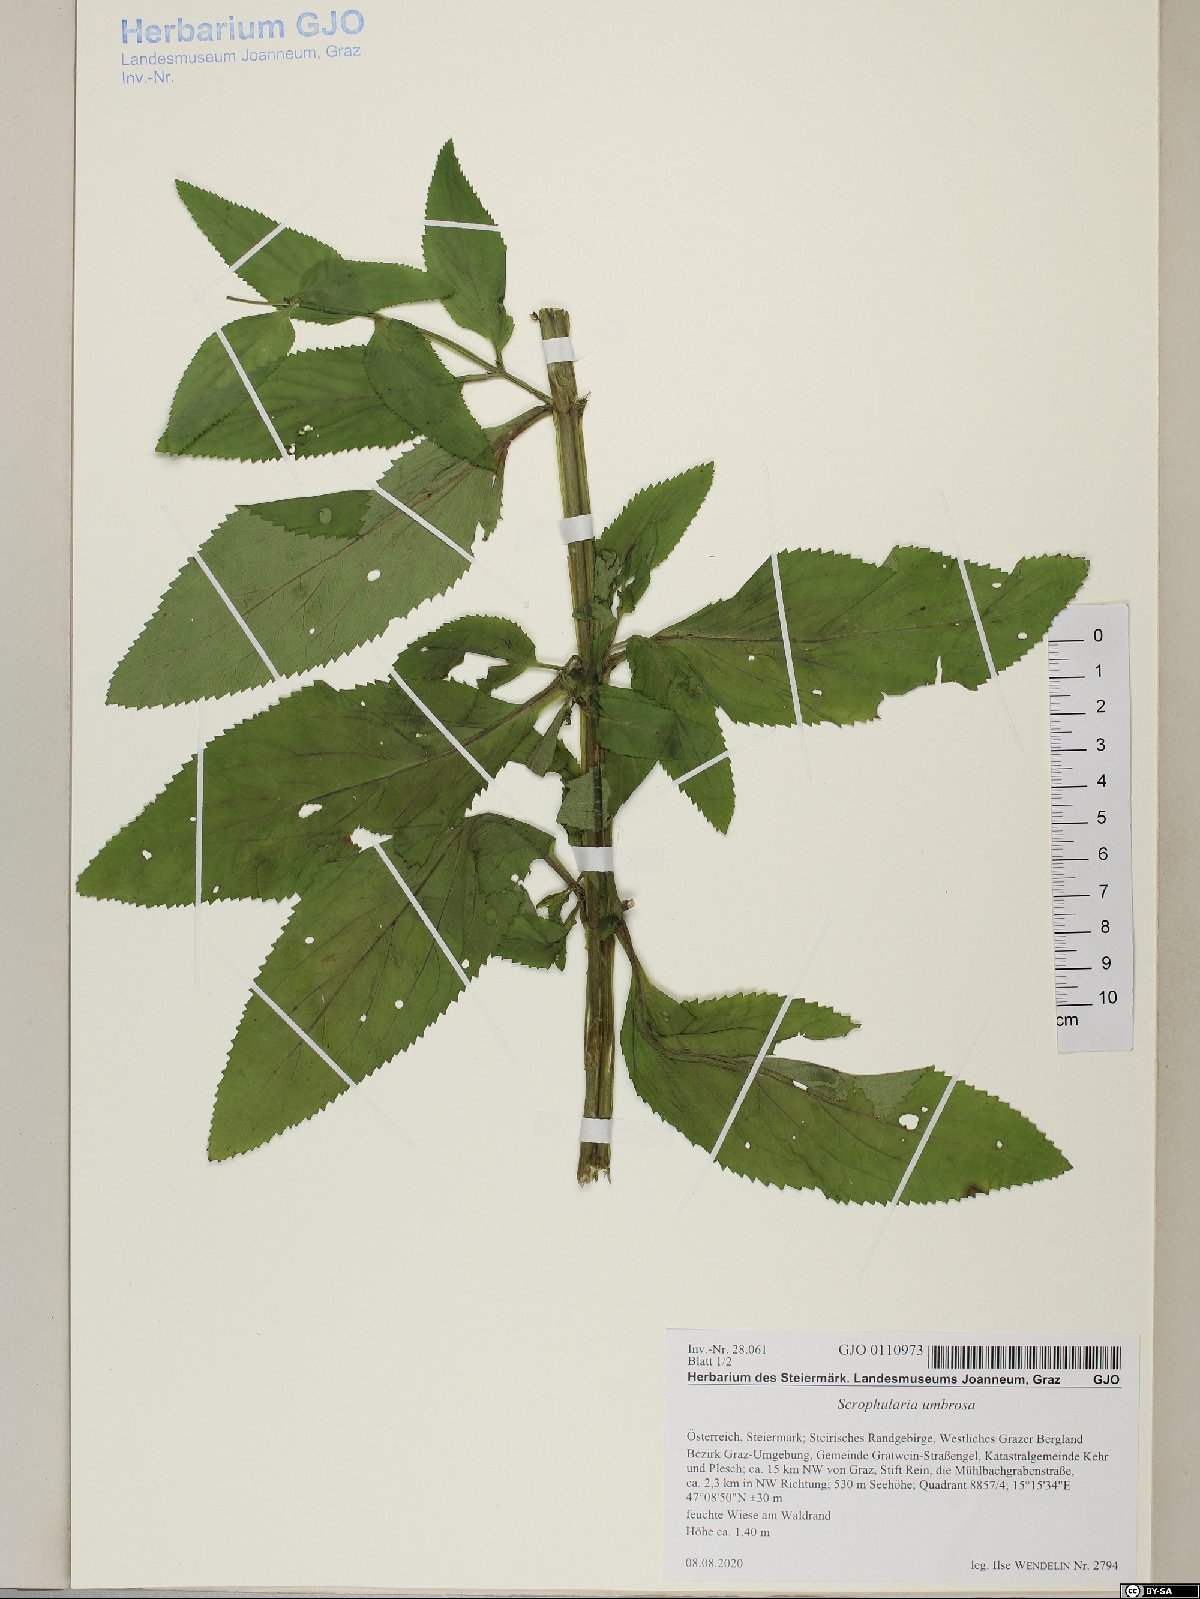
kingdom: Plantae
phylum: Tracheophyta
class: Magnoliopsida
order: Lamiales
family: Scrophulariaceae
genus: Scrophularia
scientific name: Scrophularia umbrosa
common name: Green figwort
